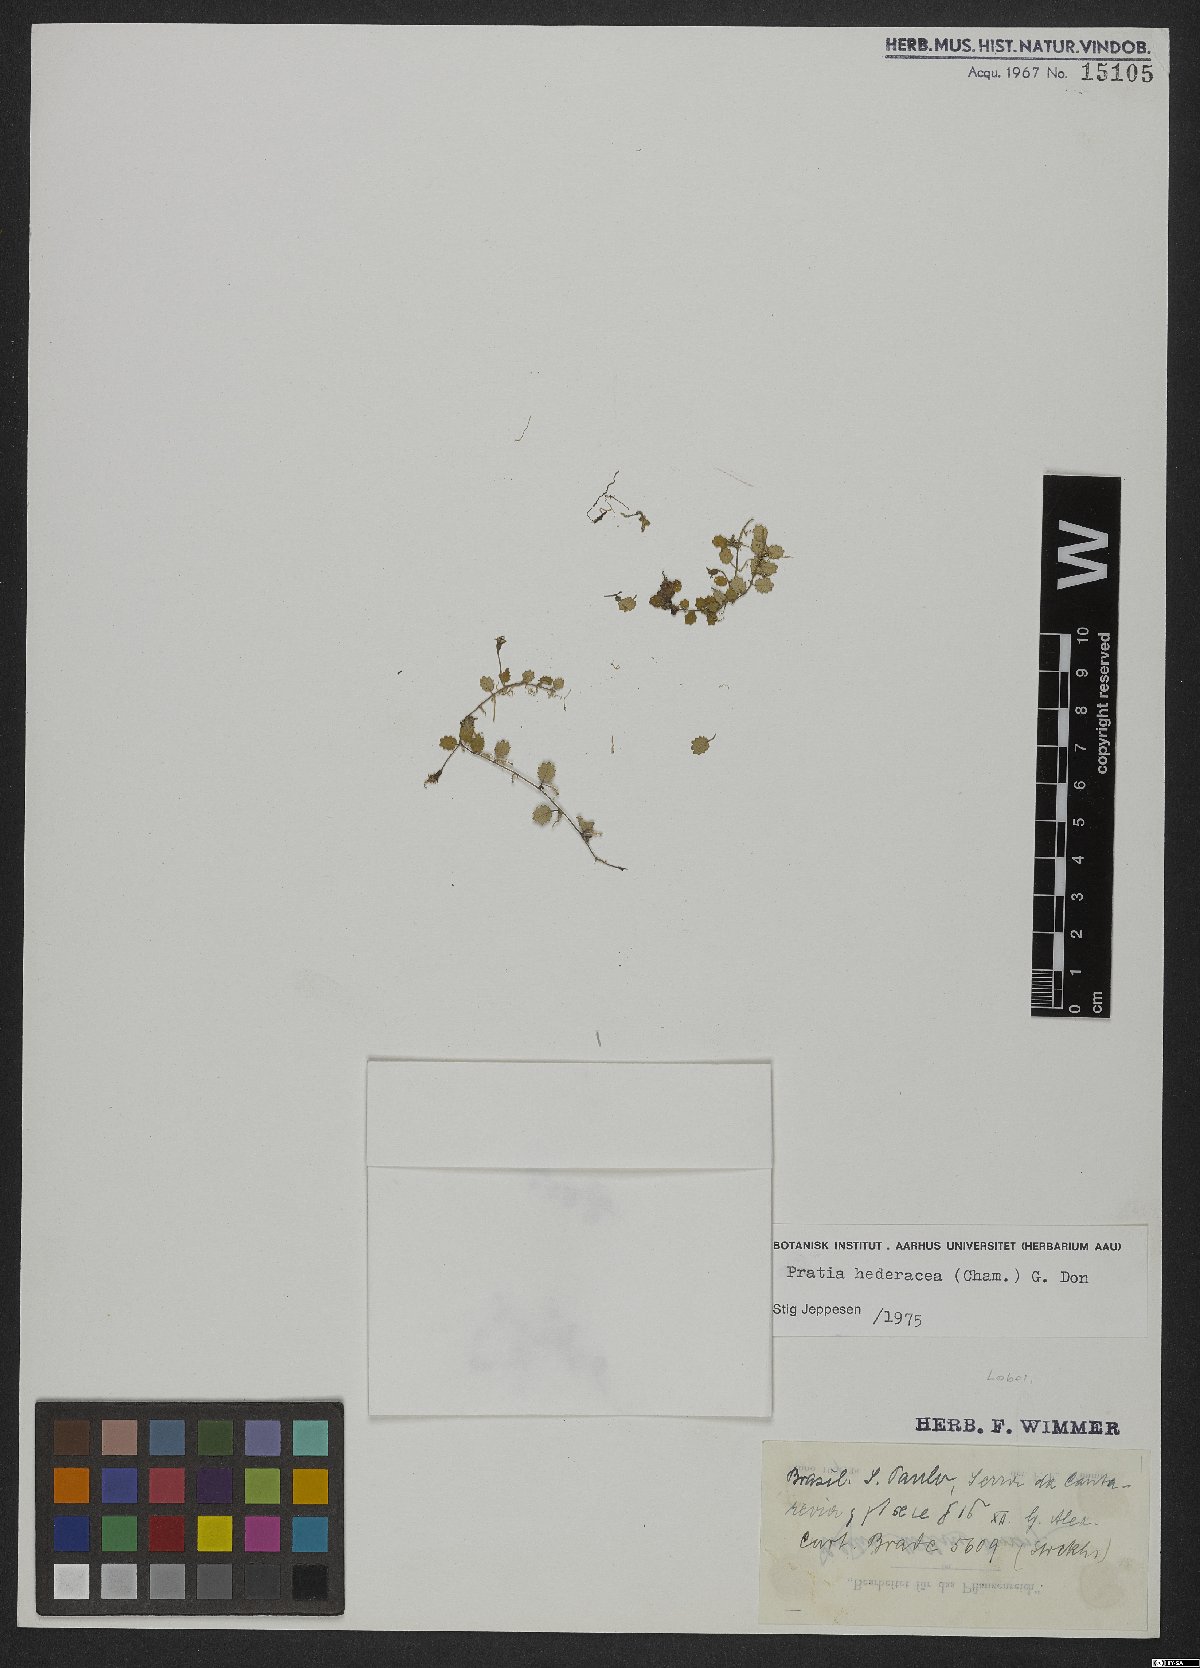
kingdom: Plantae
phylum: Tracheophyta
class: Magnoliopsida
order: Asterales
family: Campanulaceae
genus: Lobelia
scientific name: Lobelia hederacea
